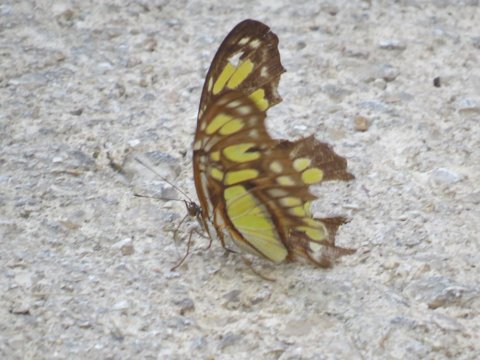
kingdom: Animalia
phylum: Arthropoda
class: Insecta
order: Lepidoptera
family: Nymphalidae
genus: Siproeta
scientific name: Siproeta stelenes
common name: Malachite
